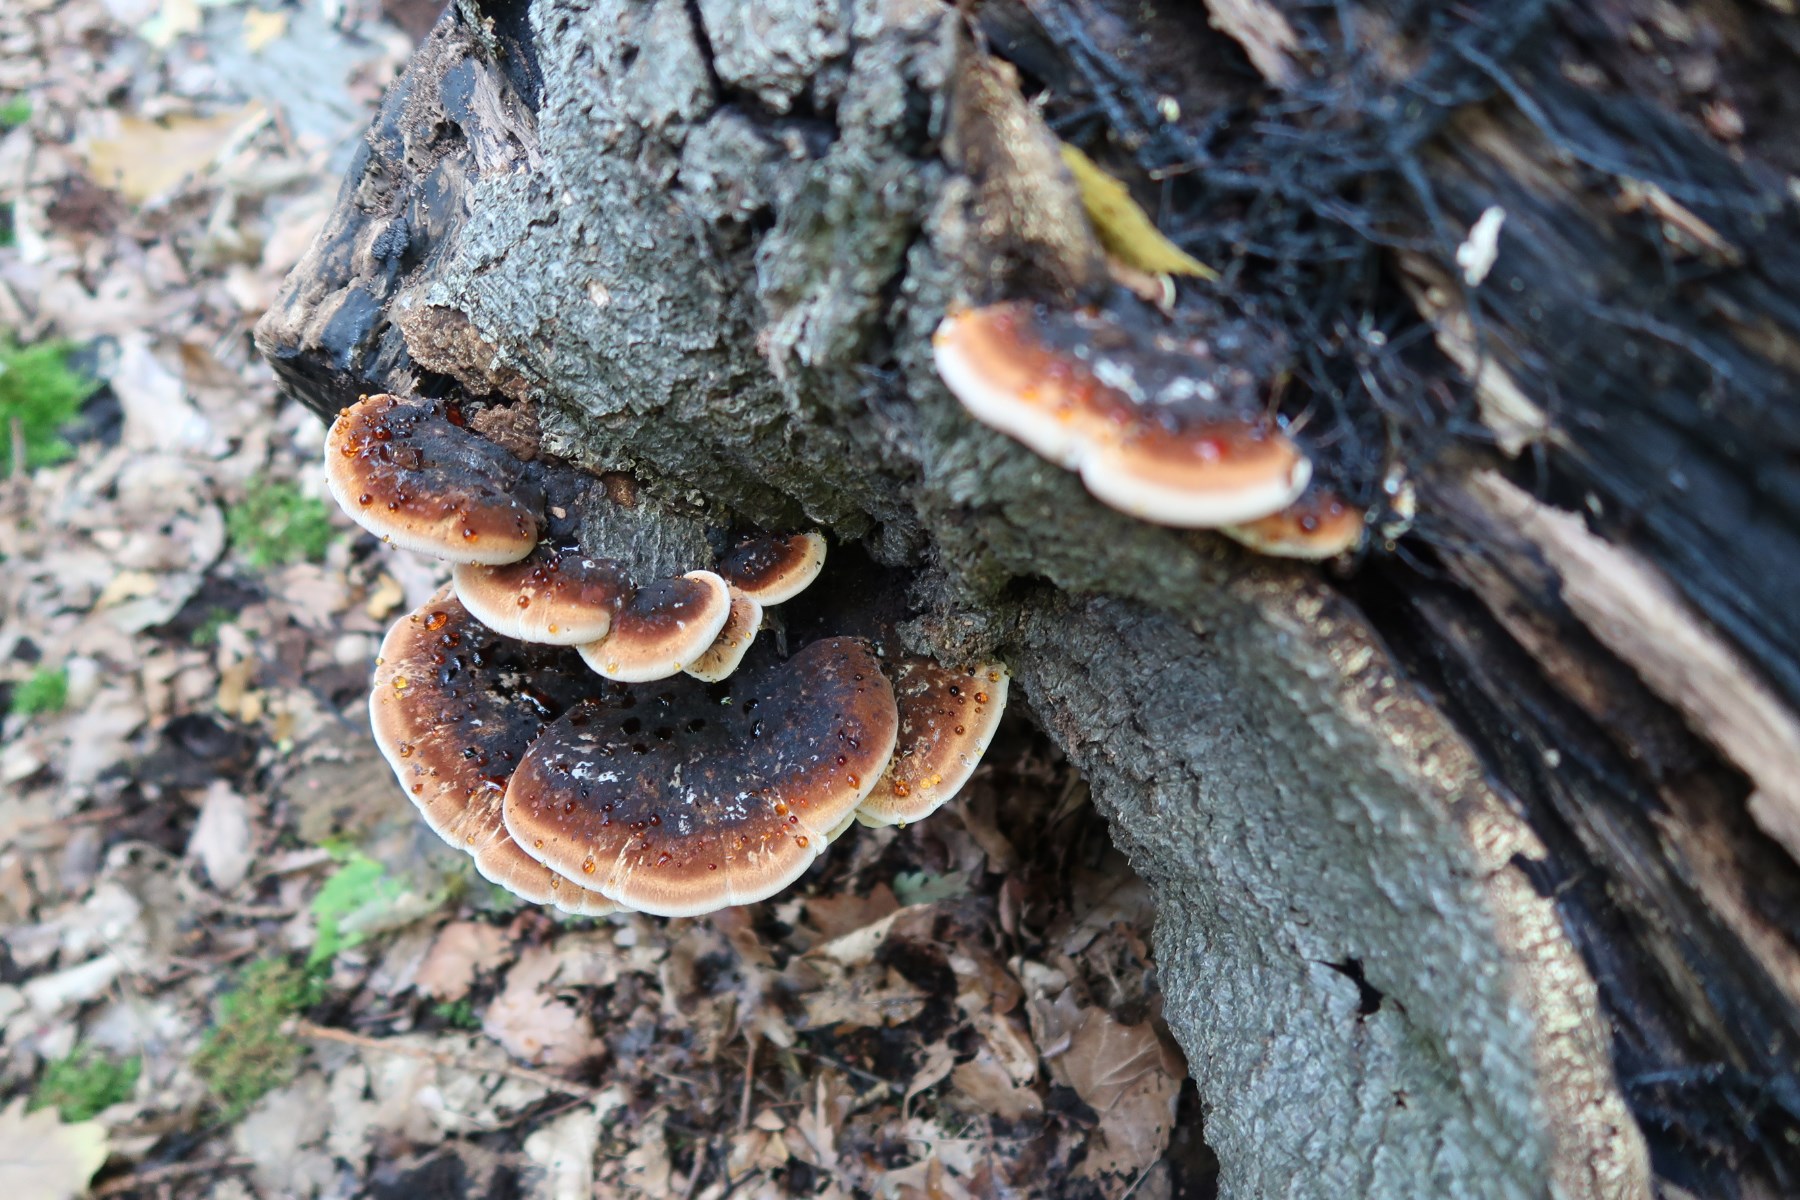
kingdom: Fungi
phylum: Basidiomycota
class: Agaricomycetes
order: Polyporales
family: Ischnodermataceae
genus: Ischnoderma
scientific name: Ischnoderma resinosum
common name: løv-tjæreporesvamp
